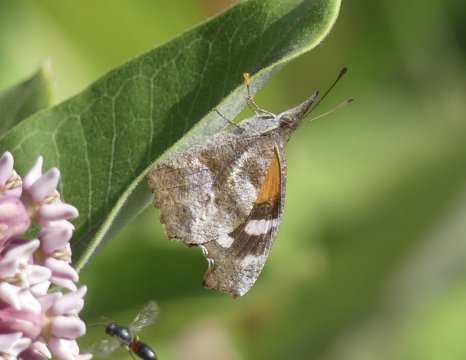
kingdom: Animalia
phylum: Arthropoda
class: Insecta
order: Lepidoptera
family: Nymphalidae
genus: Libytheana
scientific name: Libytheana carinenta
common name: American Snout
